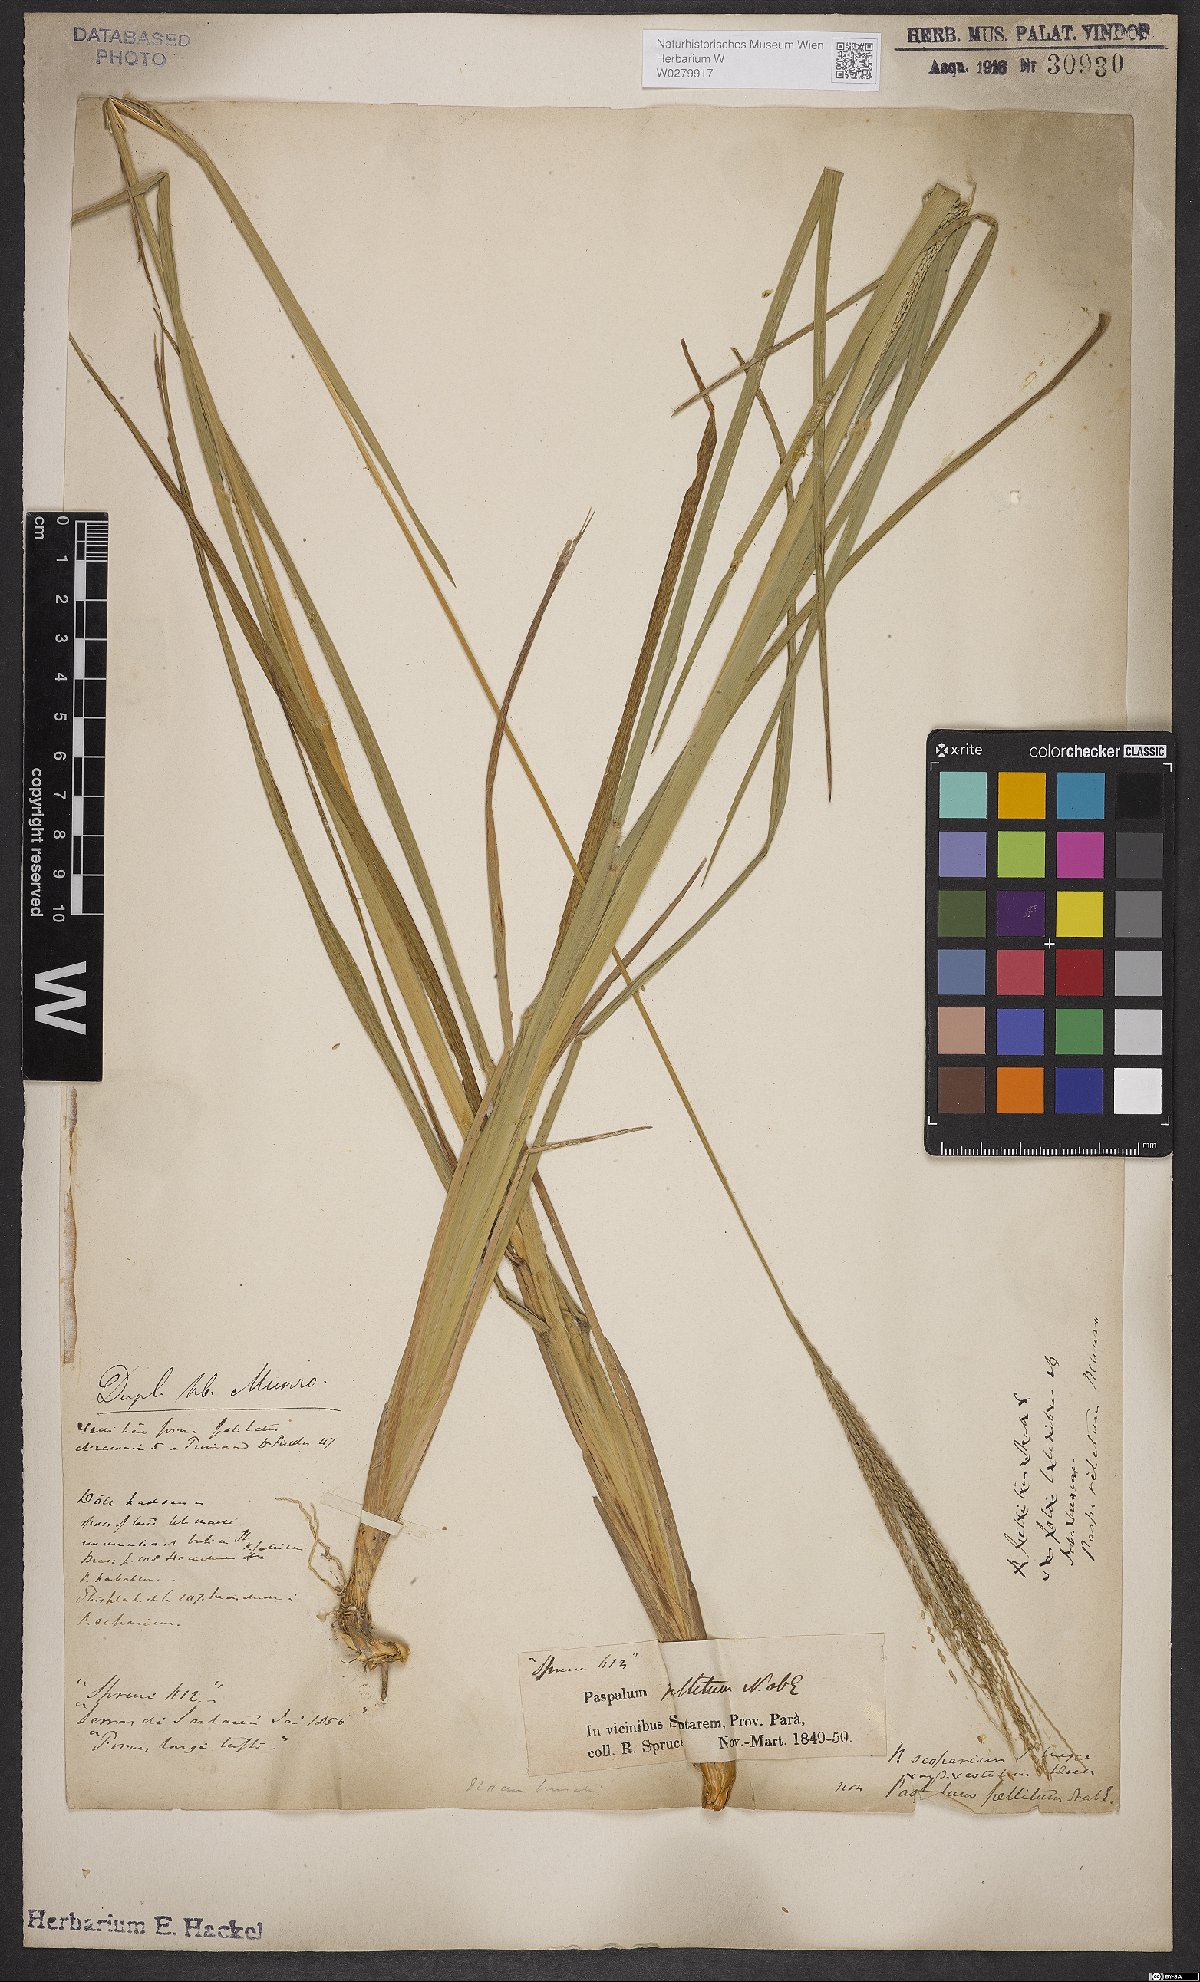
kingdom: Plantae
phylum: Tracheophyta
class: Liliopsida
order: Poales
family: Poaceae
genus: Axonopus
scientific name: Axonopus scoparius
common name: Imperial grass
